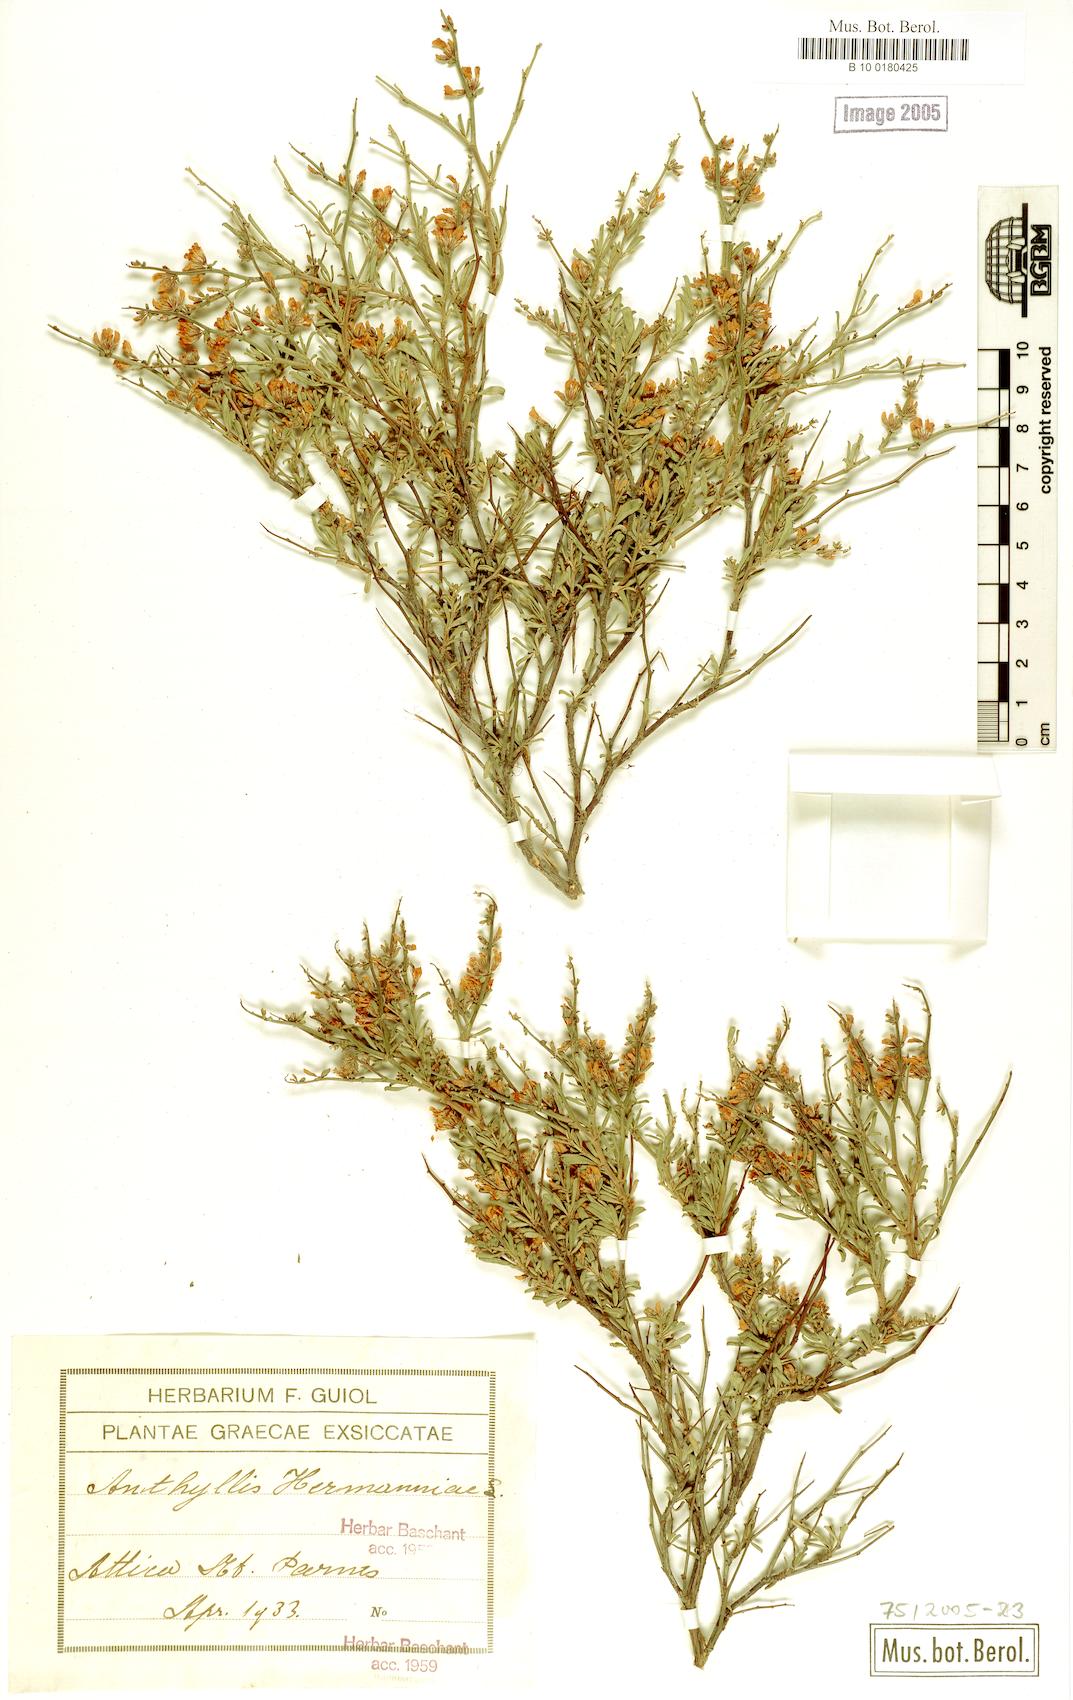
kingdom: Plantae
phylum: Tracheophyta
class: Magnoliopsida
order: Fabales
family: Fabaceae
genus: Anthyllis
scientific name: Anthyllis hermanniae
